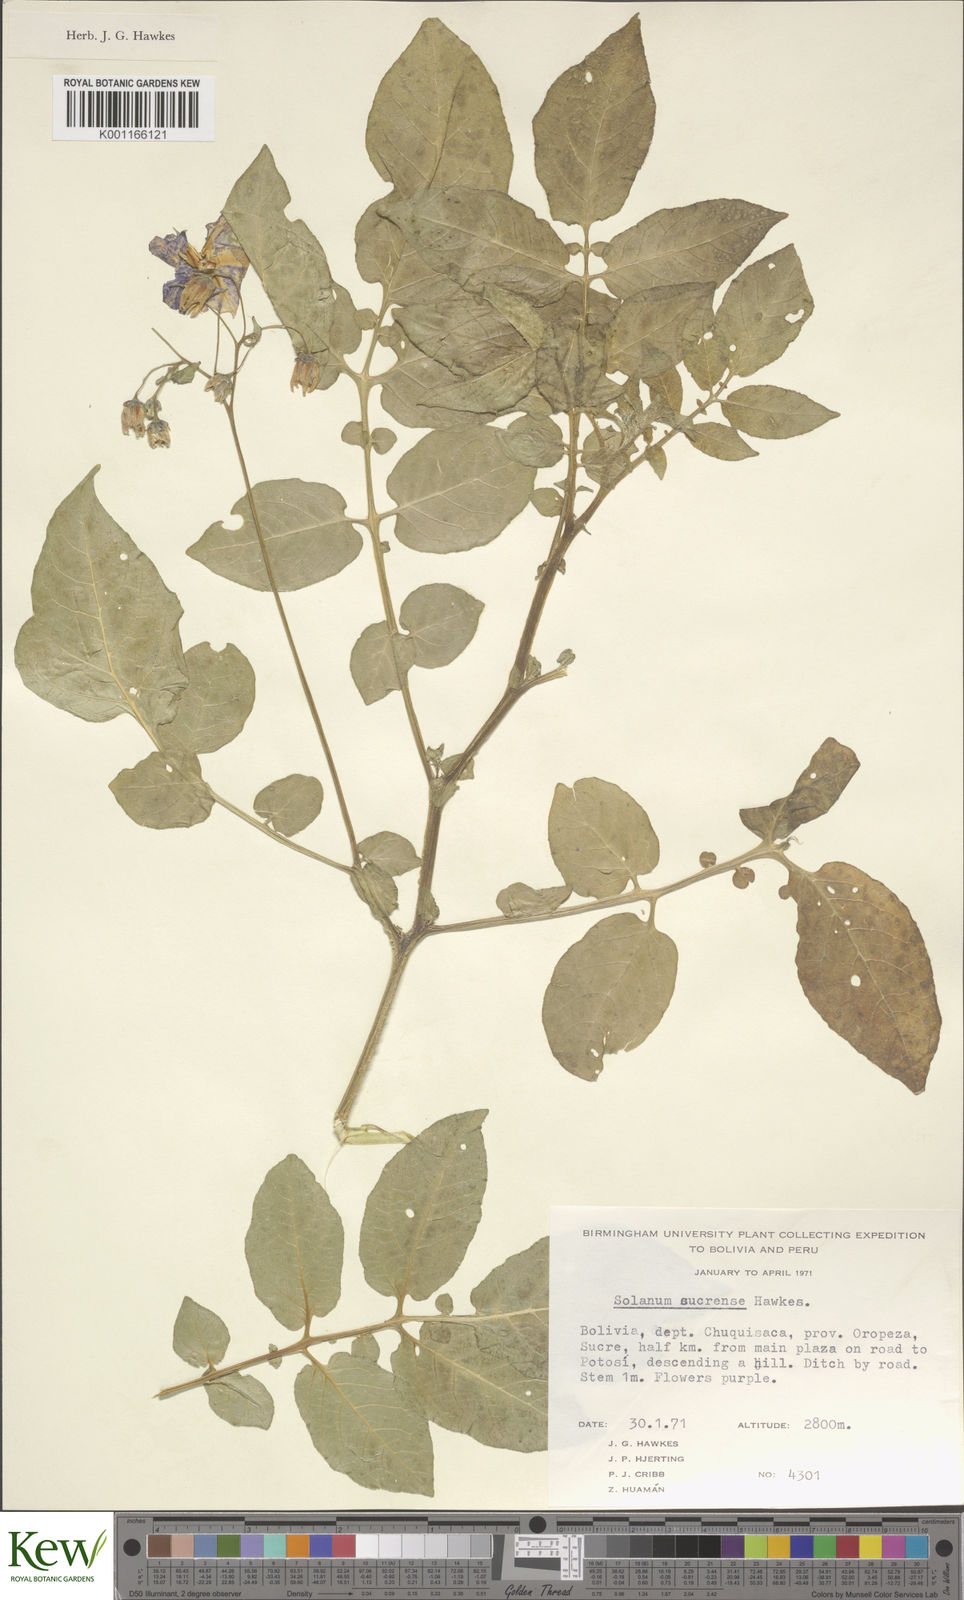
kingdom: Plantae
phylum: Tracheophyta
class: Magnoliopsida
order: Solanales
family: Solanaceae
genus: Solanum
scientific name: Solanum brevicaule
